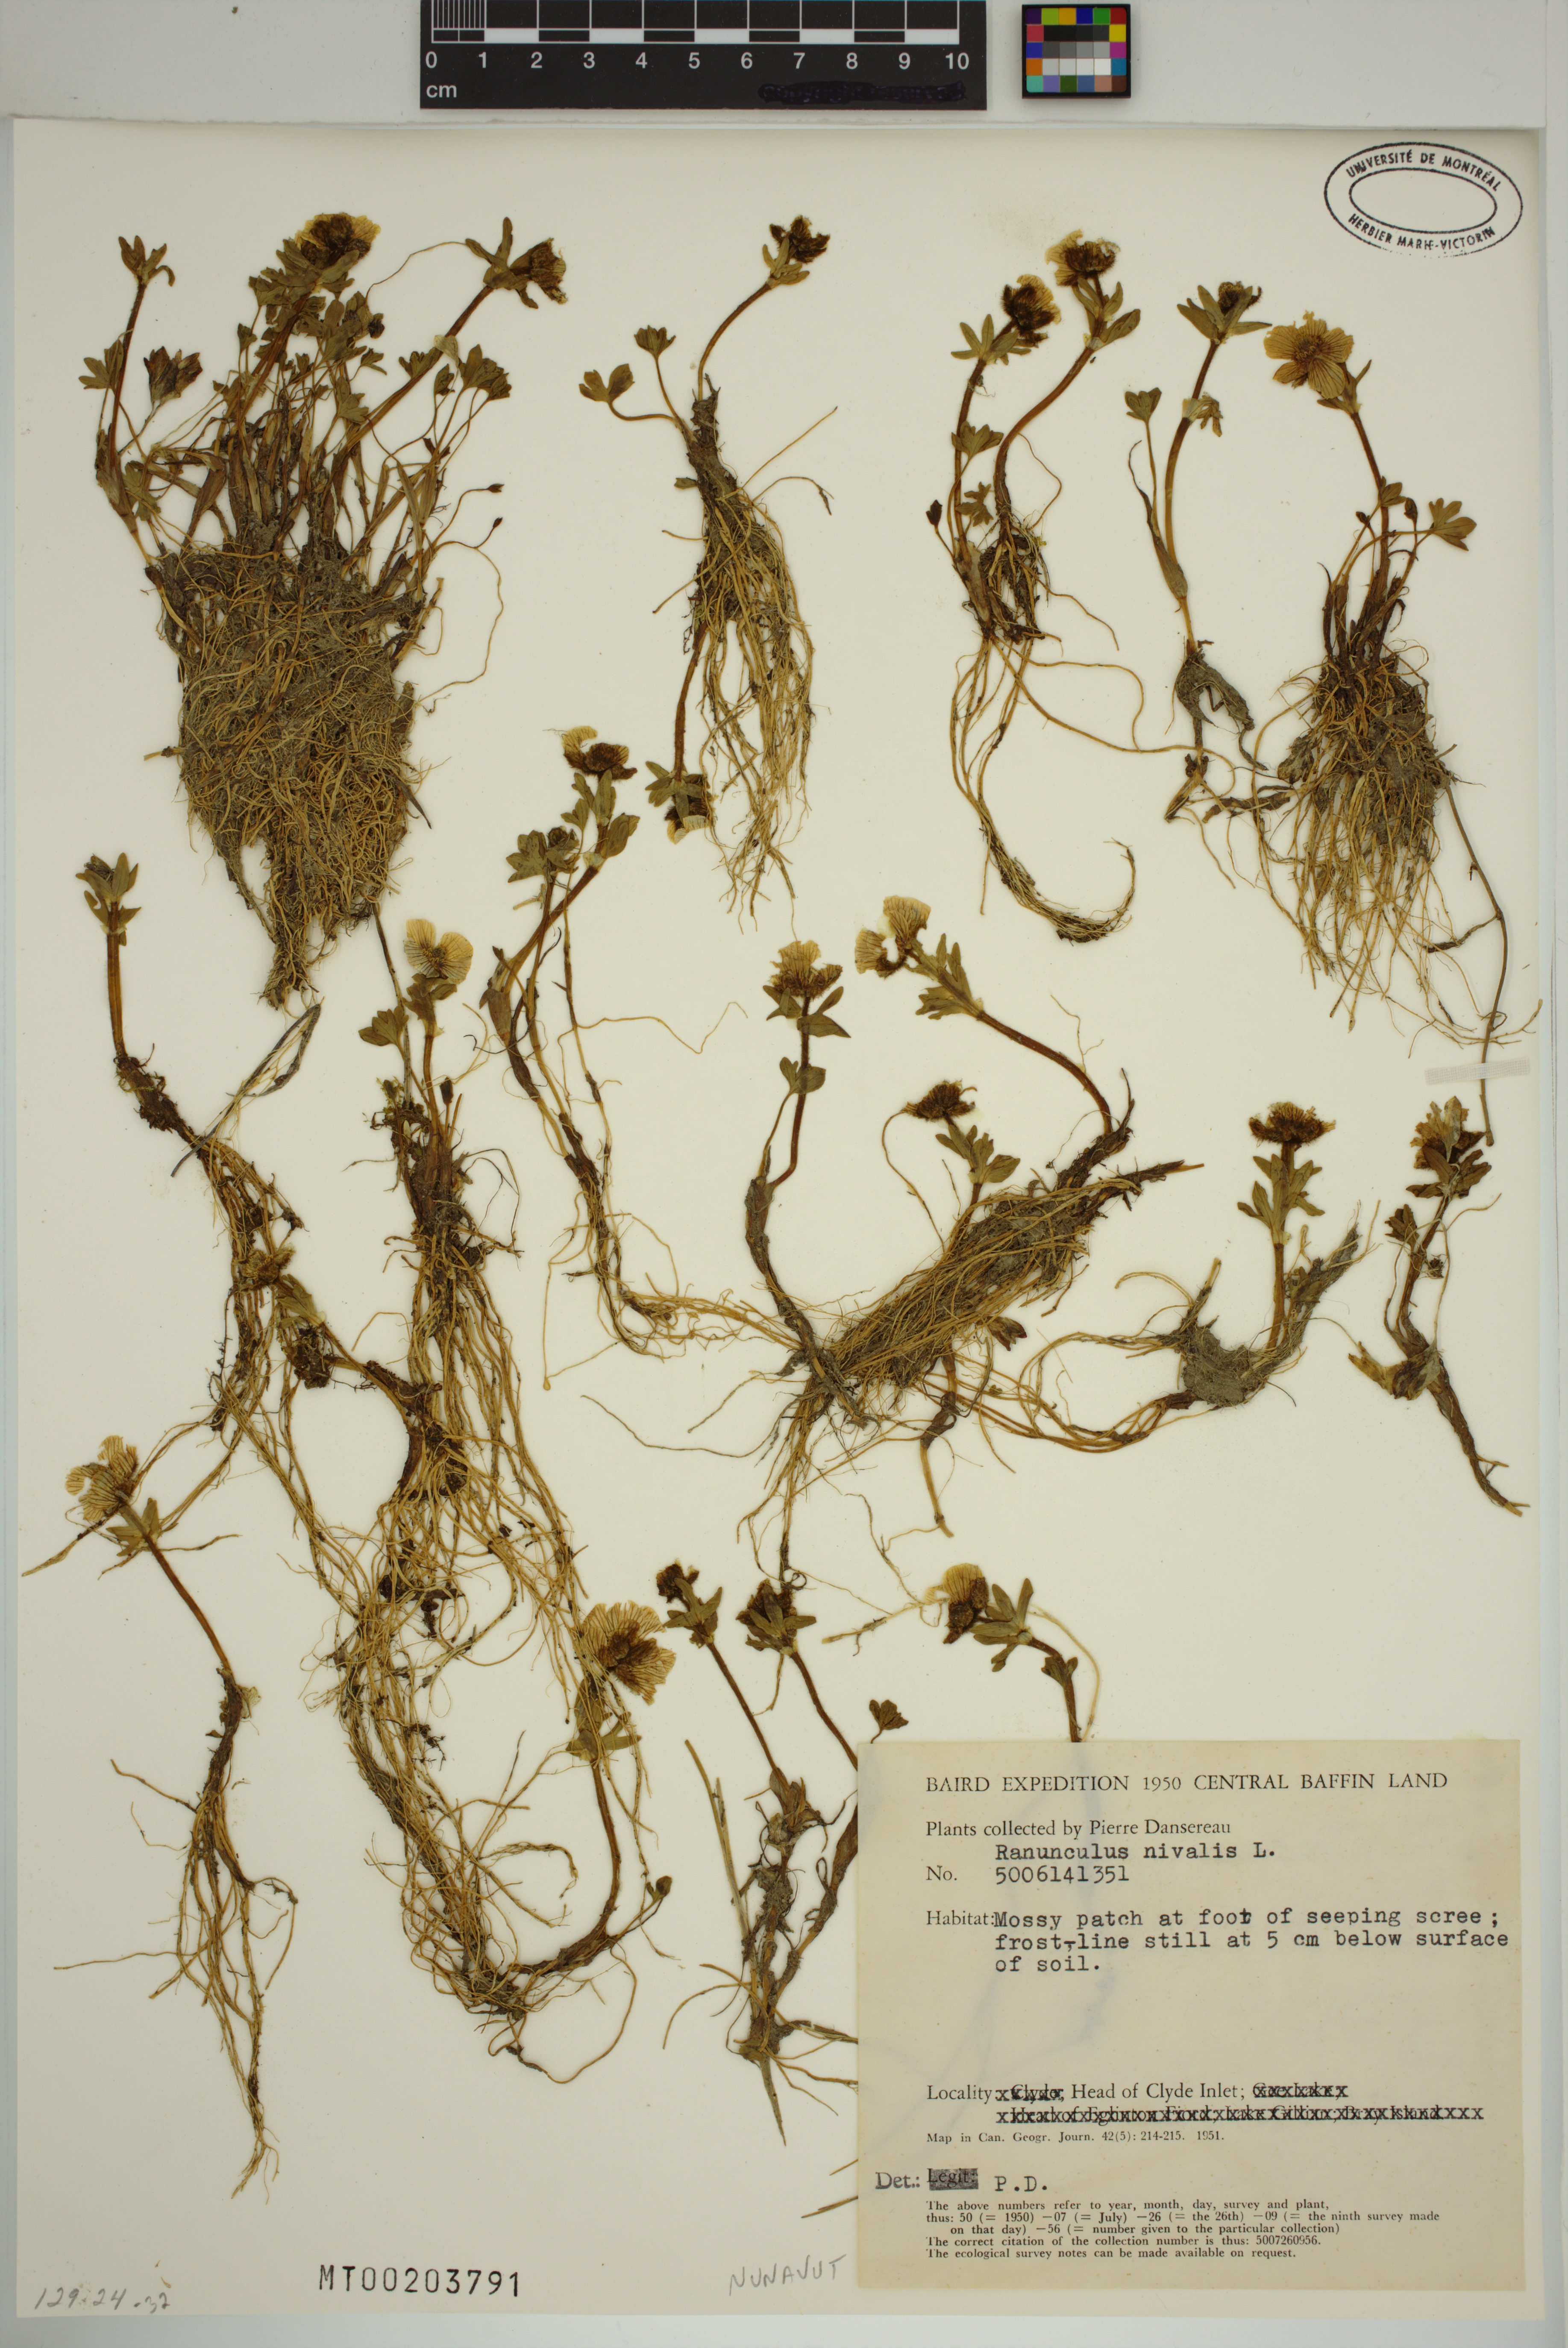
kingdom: Plantae
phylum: Tracheophyta
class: Magnoliopsida
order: Ranunculales
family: Ranunculaceae
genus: Ranunculus
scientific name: Ranunculus nivalis
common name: Snow buttercup
